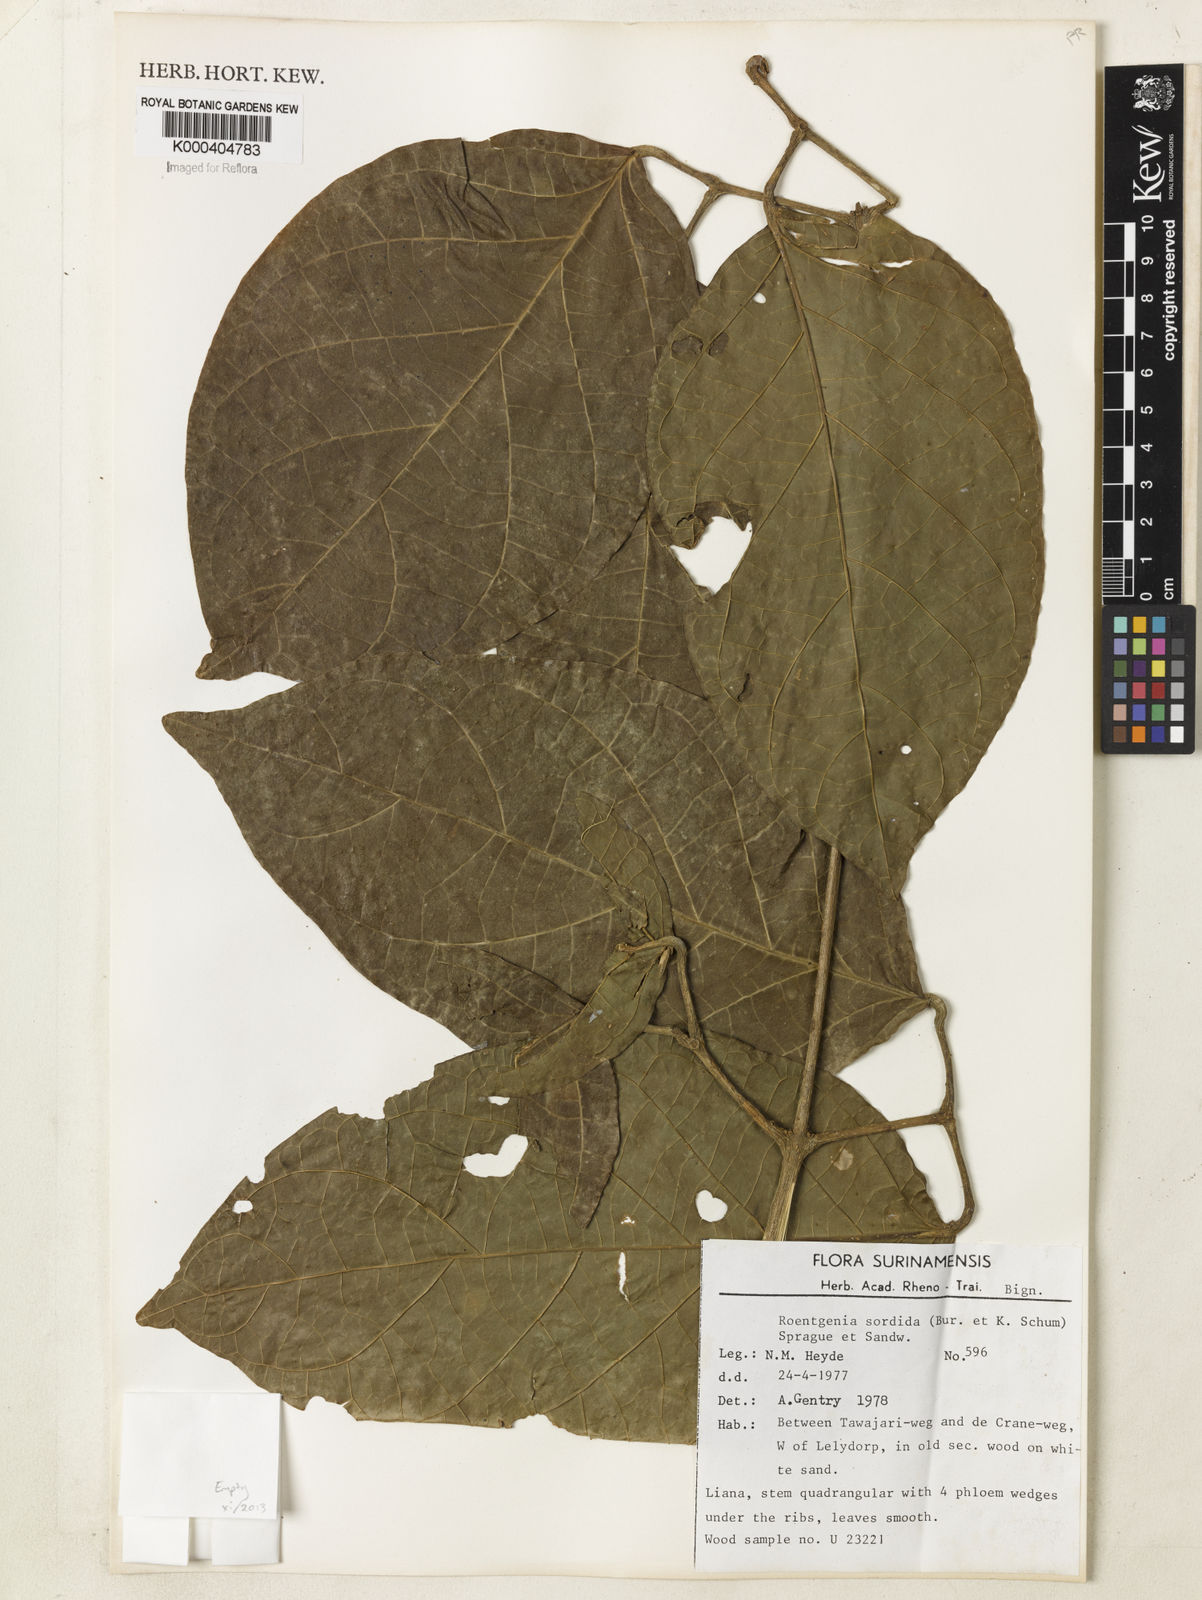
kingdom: Plantae
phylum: Tracheophyta
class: Magnoliopsida
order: Lamiales
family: Bignoniaceae
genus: Bignonia
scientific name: Bignonia sordida
